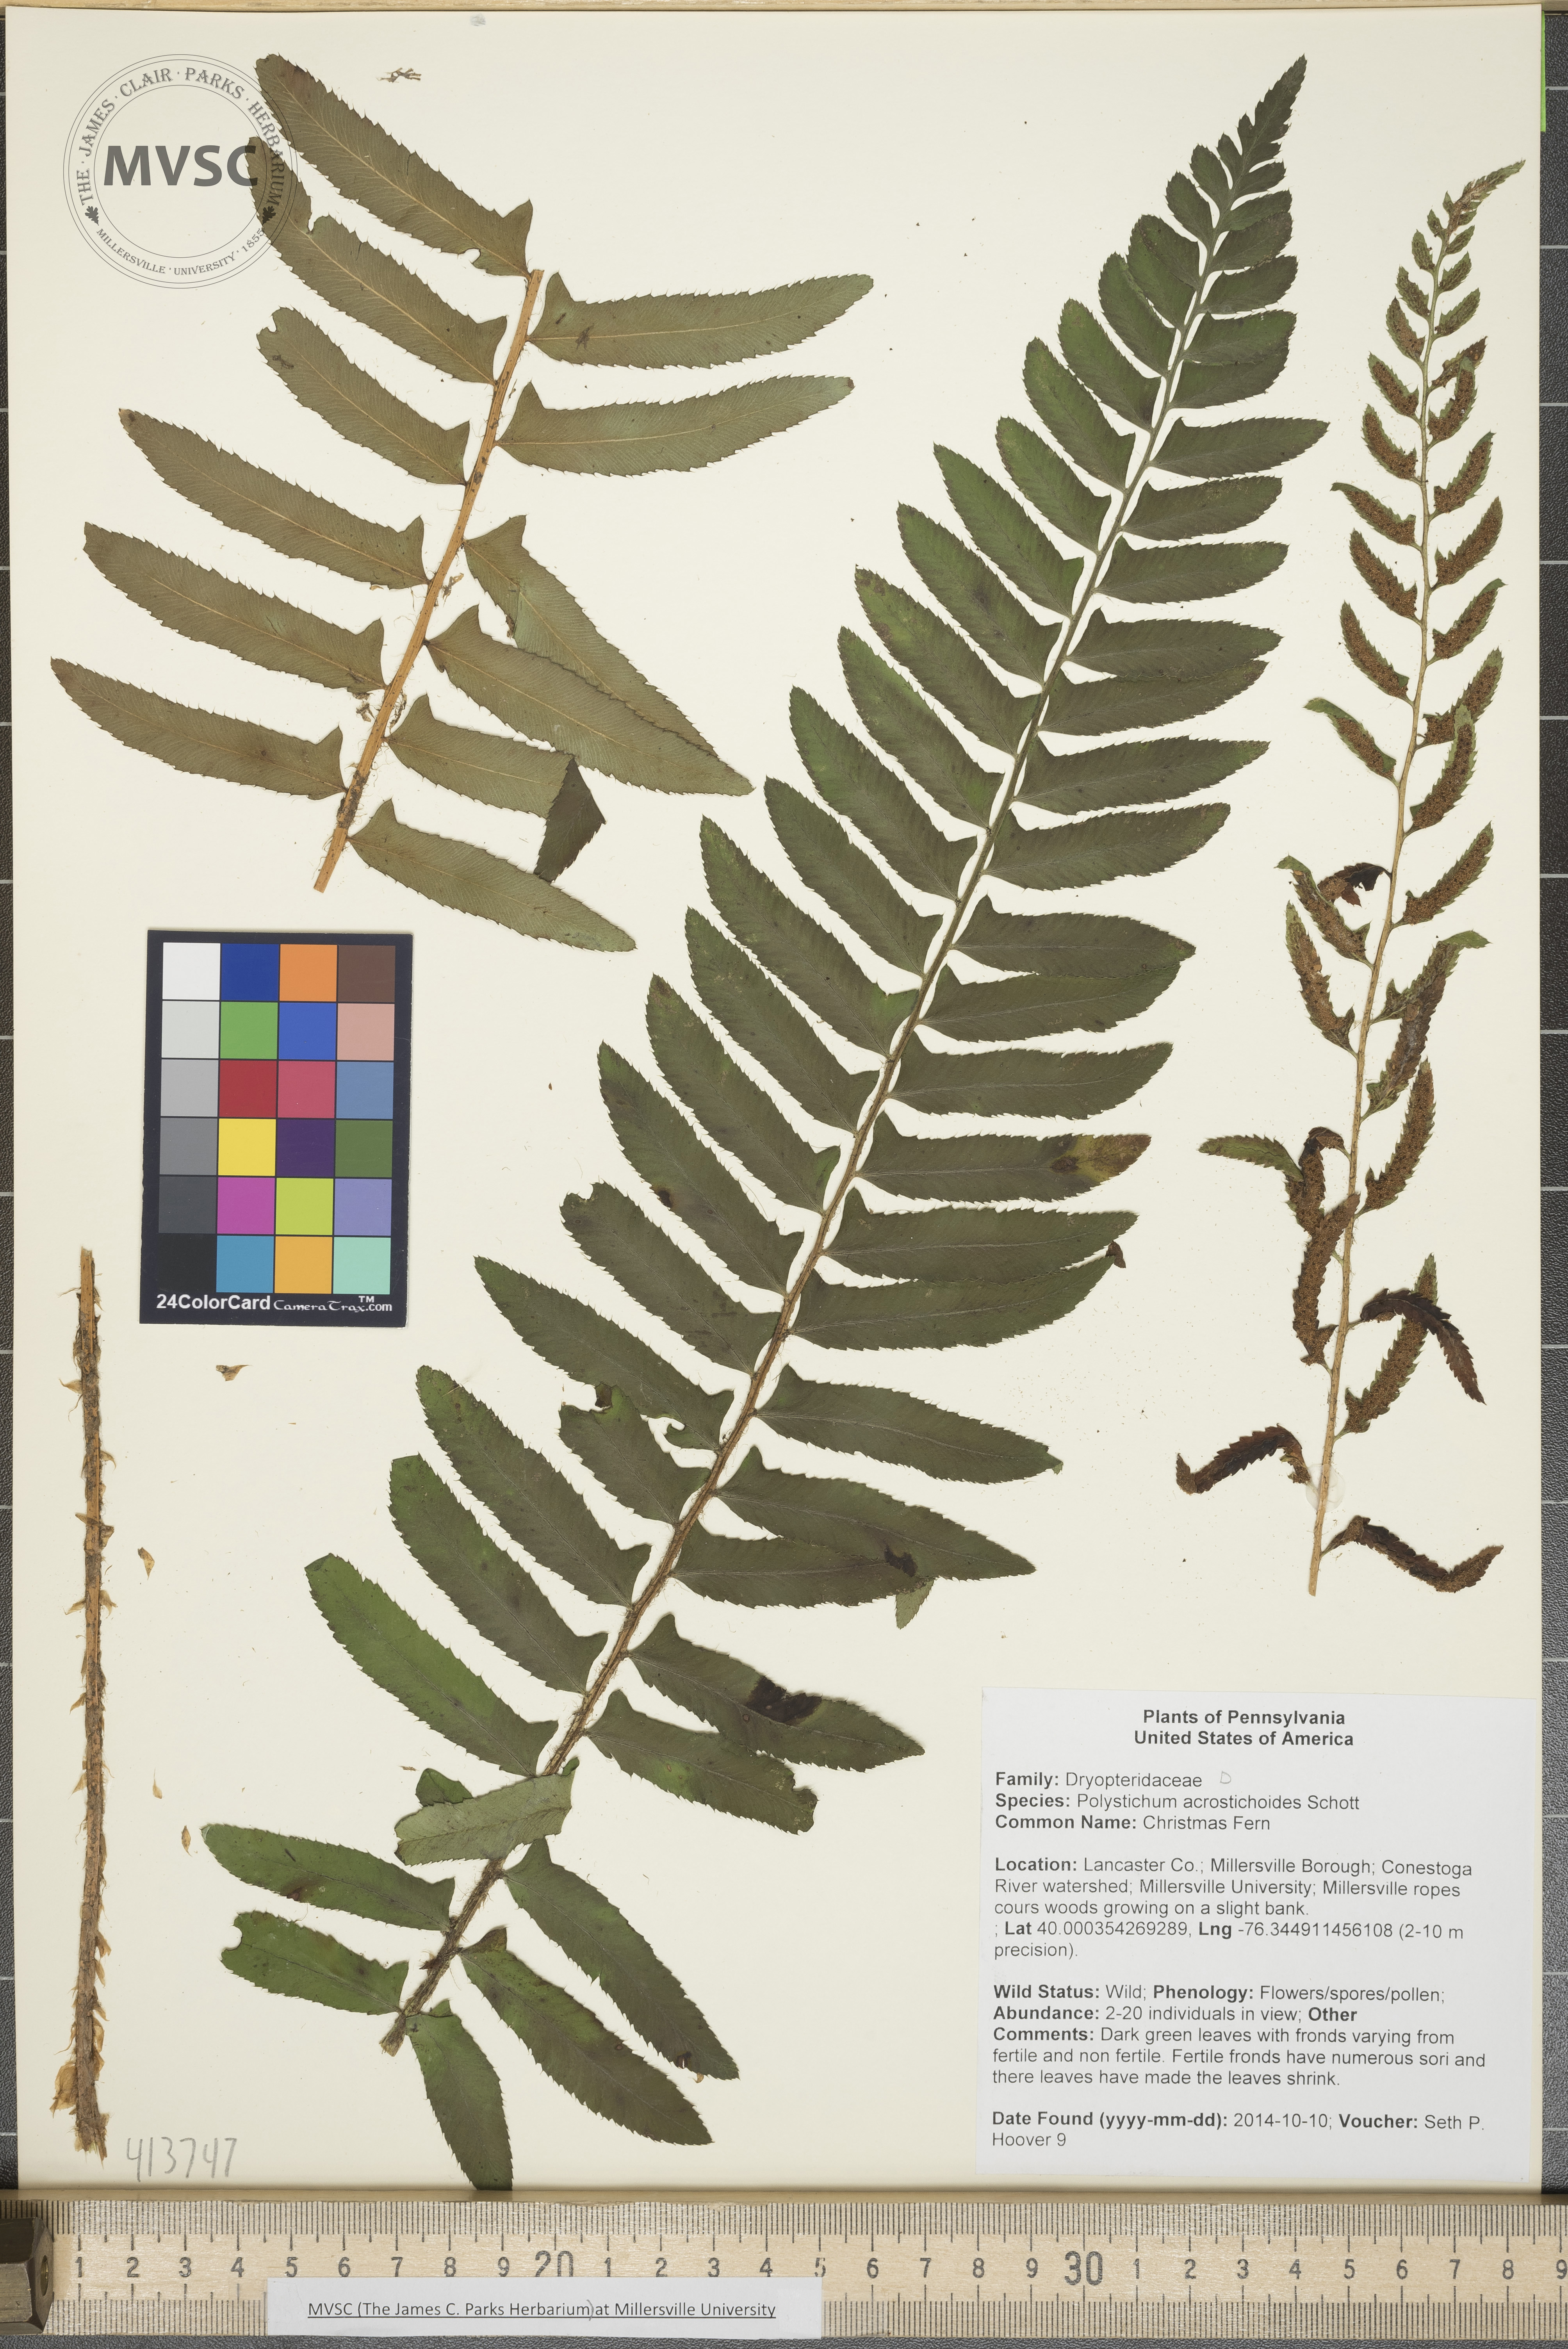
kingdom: Plantae
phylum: Tracheophyta
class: Polypodiopsida
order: Polypodiales
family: Dryopteridaceae
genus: Polystichum
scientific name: Polystichum acrostichoides
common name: Christmas Fern
